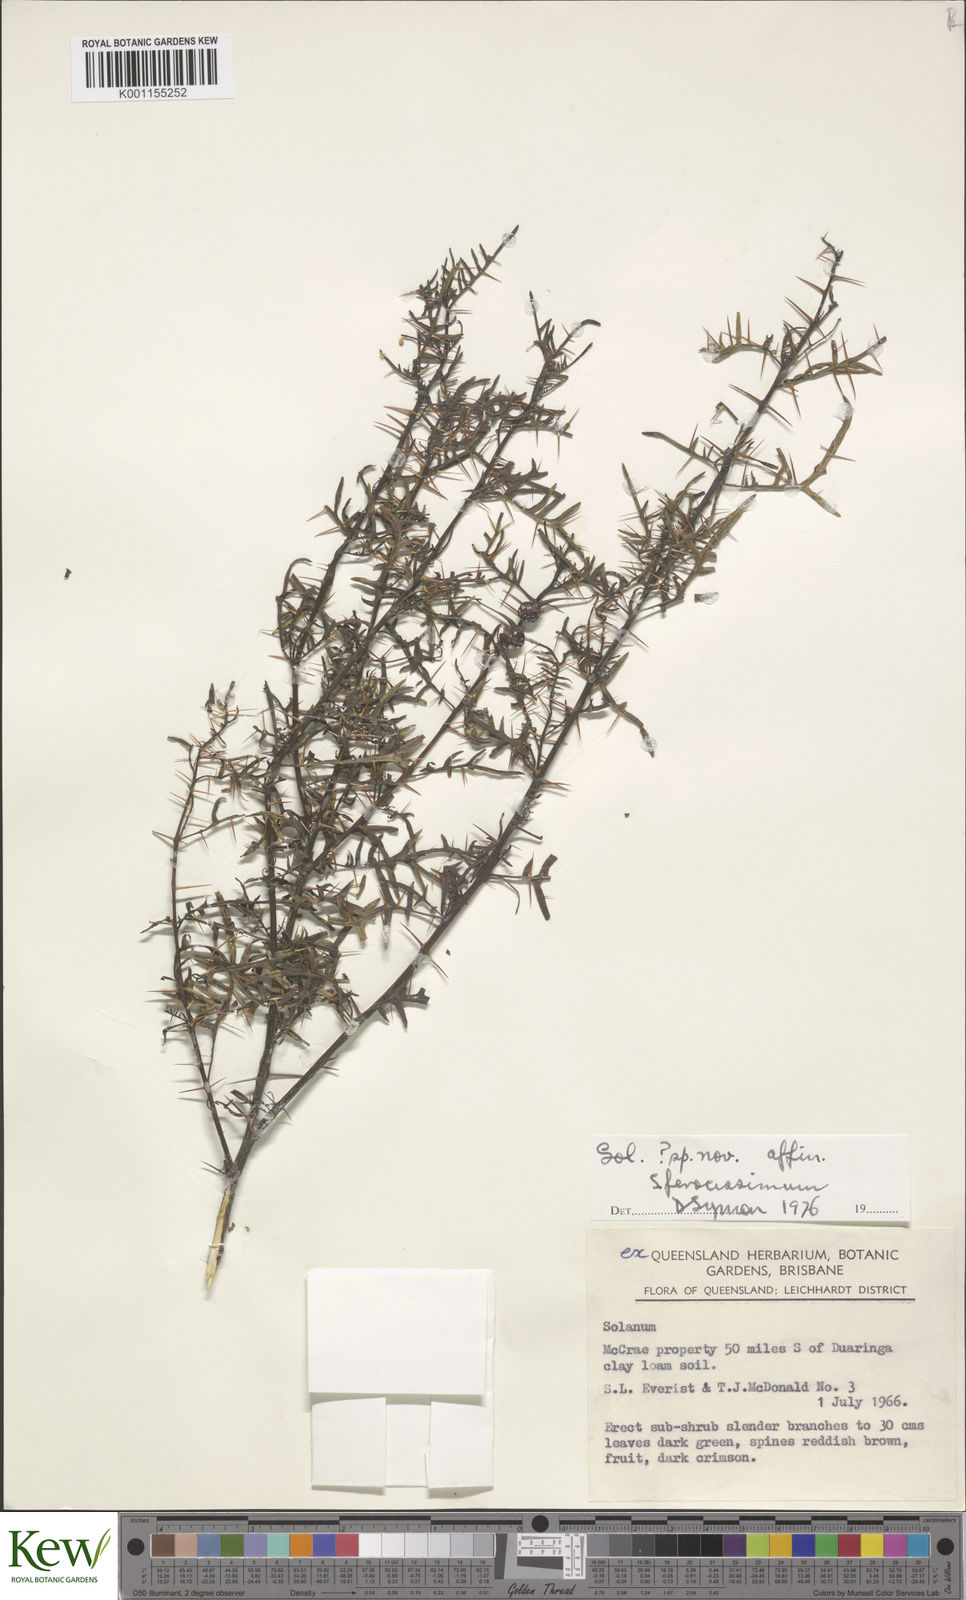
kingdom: Plantae
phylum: Tracheophyta
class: Magnoliopsida
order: Solanales
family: Solanaceae
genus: Solanum
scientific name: Solanum ferocissimum
